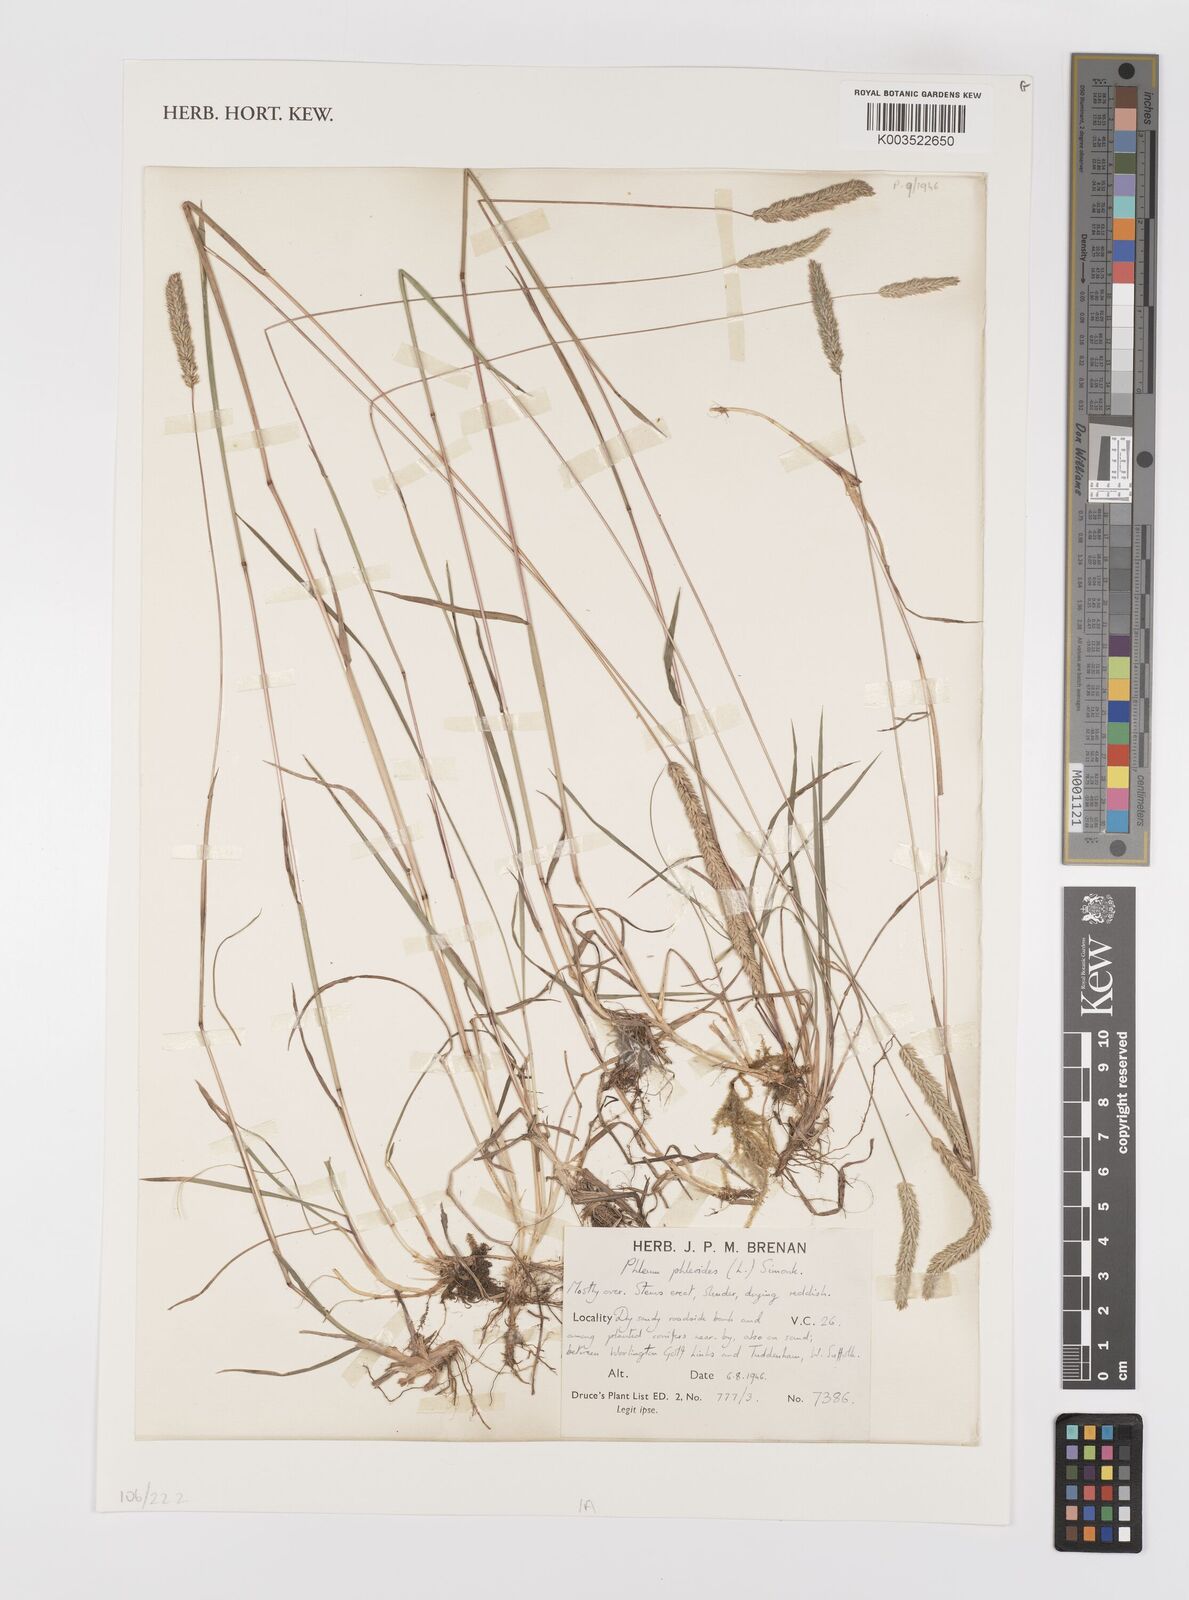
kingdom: Plantae
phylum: Tracheophyta
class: Liliopsida
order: Poales
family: Poaceae
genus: Phleum
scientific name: Phleum phleoides
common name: Purple-stem cat's-tail
